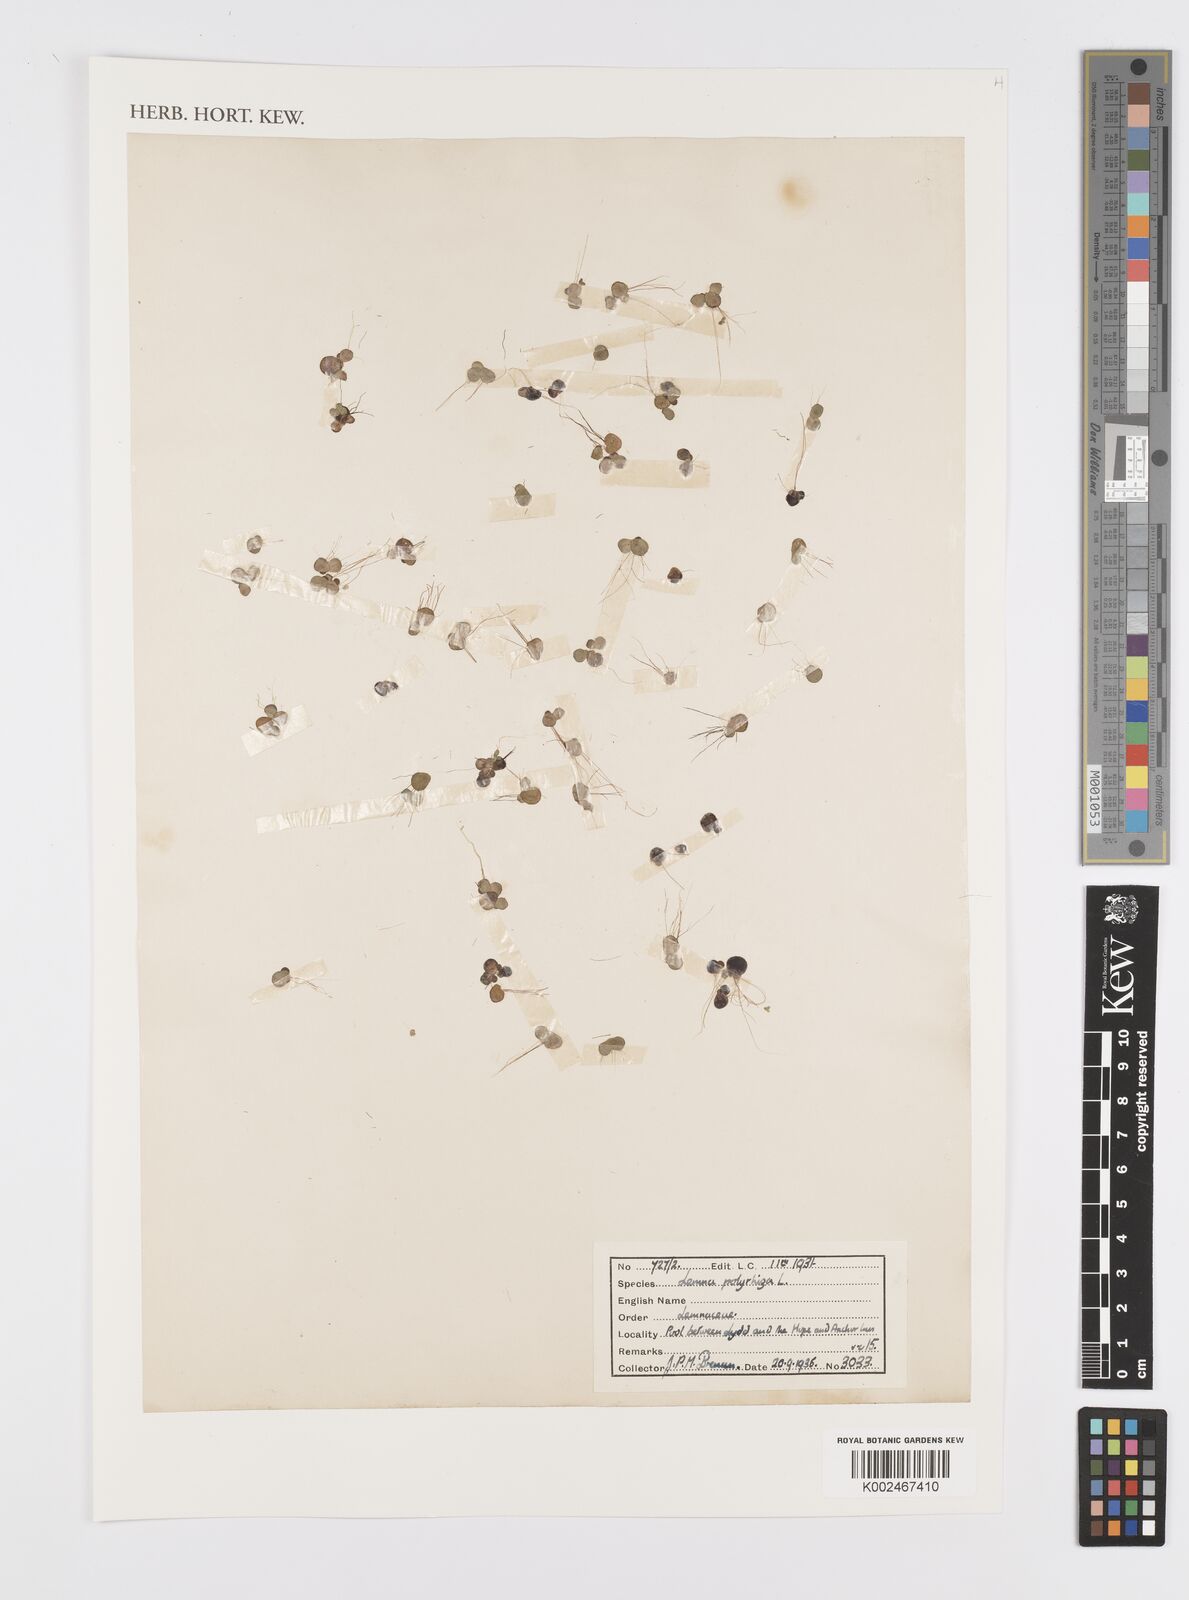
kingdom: Plantae
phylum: Tracheophyta
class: Liliopsida
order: Alismatales
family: Araceae
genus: Spirodela
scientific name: Spirodela polyrhiza
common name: Great duckweed
